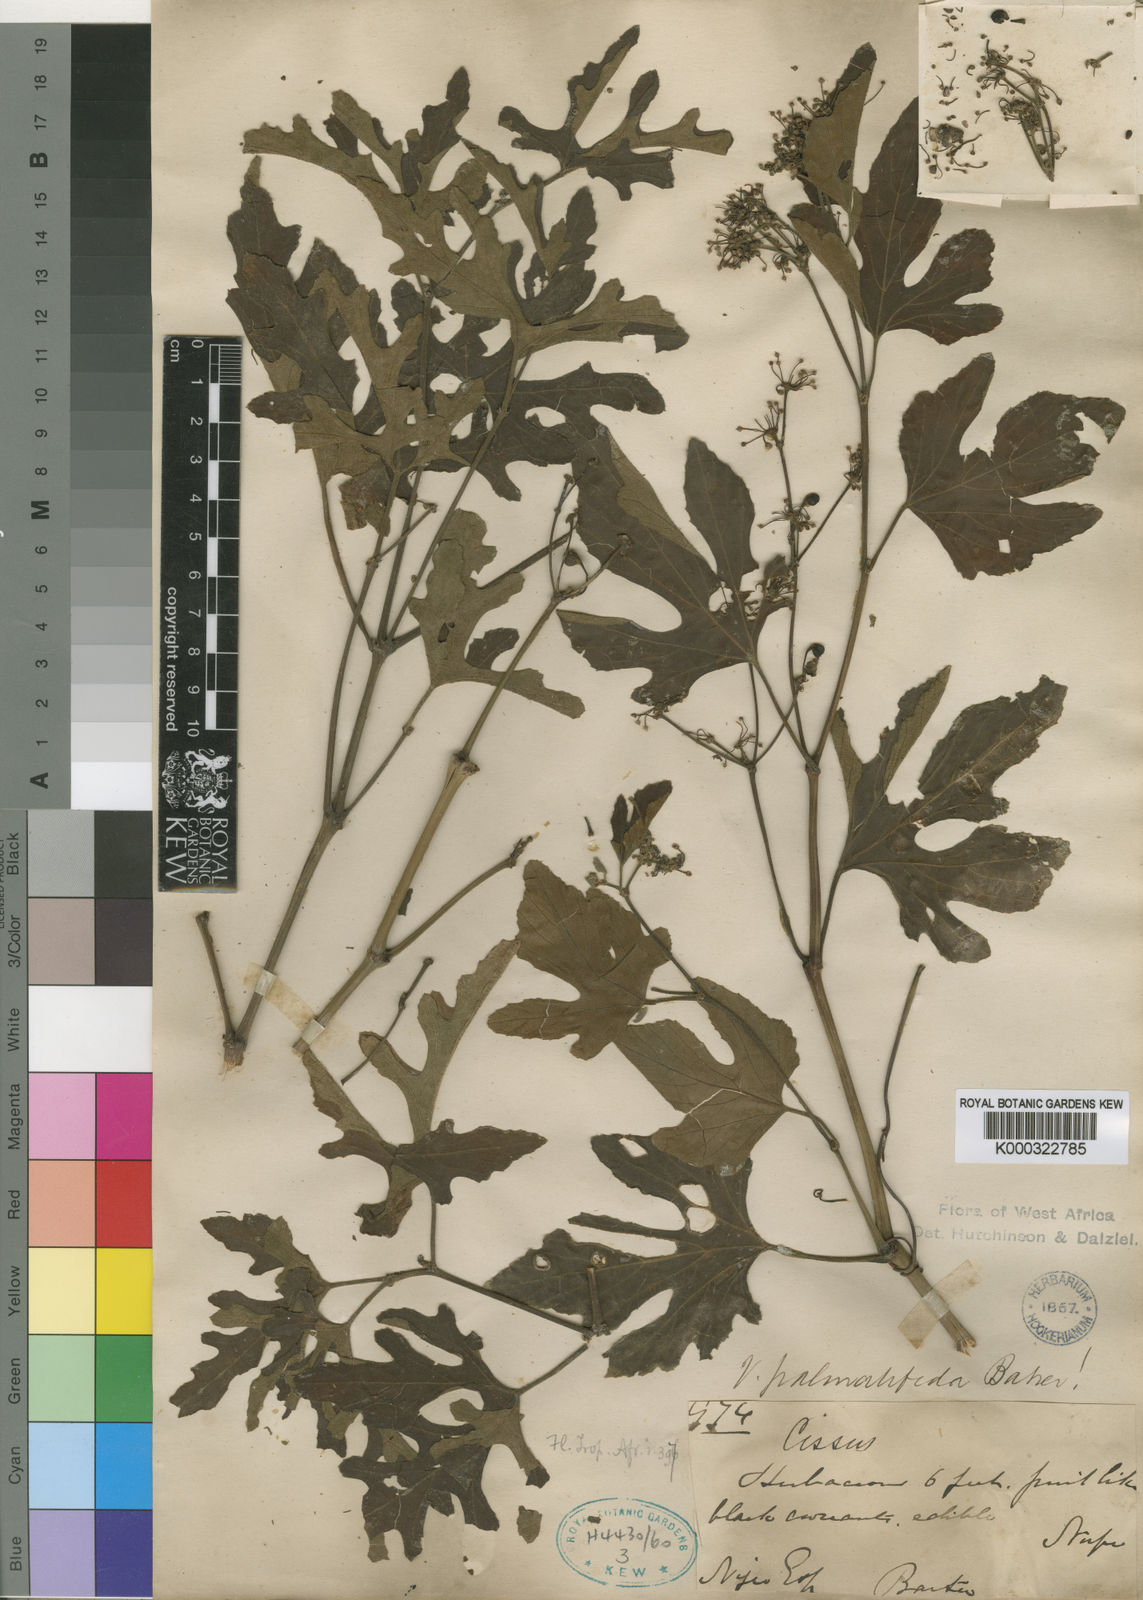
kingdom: Plantae
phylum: Tracheophyta
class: Magnoliopsida
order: Vitales
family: Vitaceae
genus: Cissus
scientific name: Cissus palmatifida
